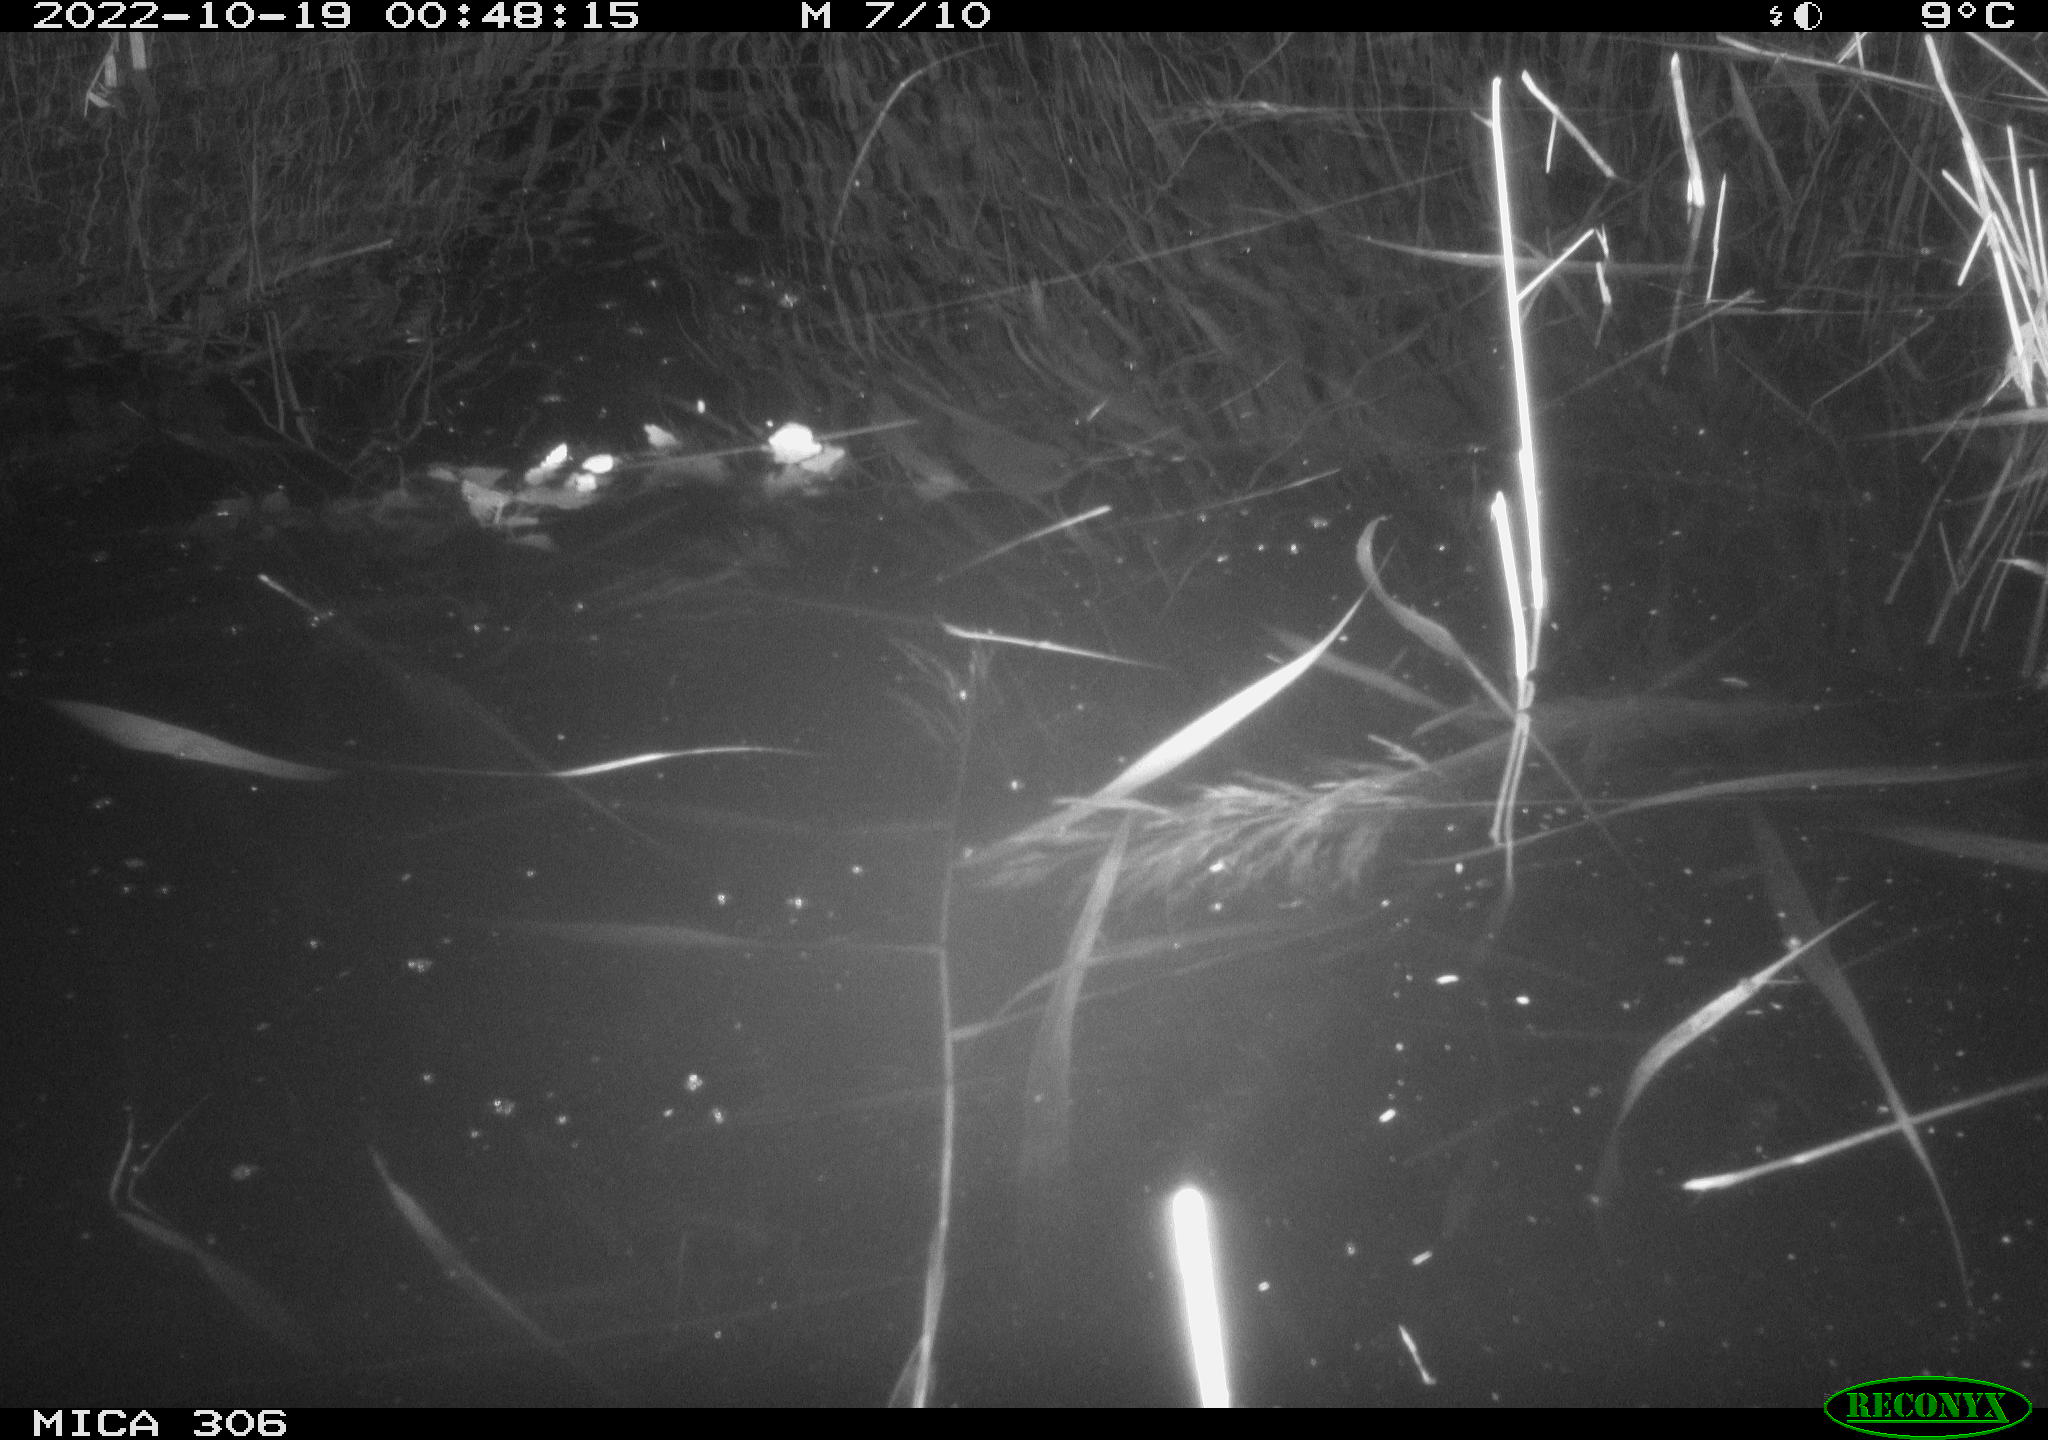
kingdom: Animalia
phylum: Chordata
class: Mammalia
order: Rodentia
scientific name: Rodentia
